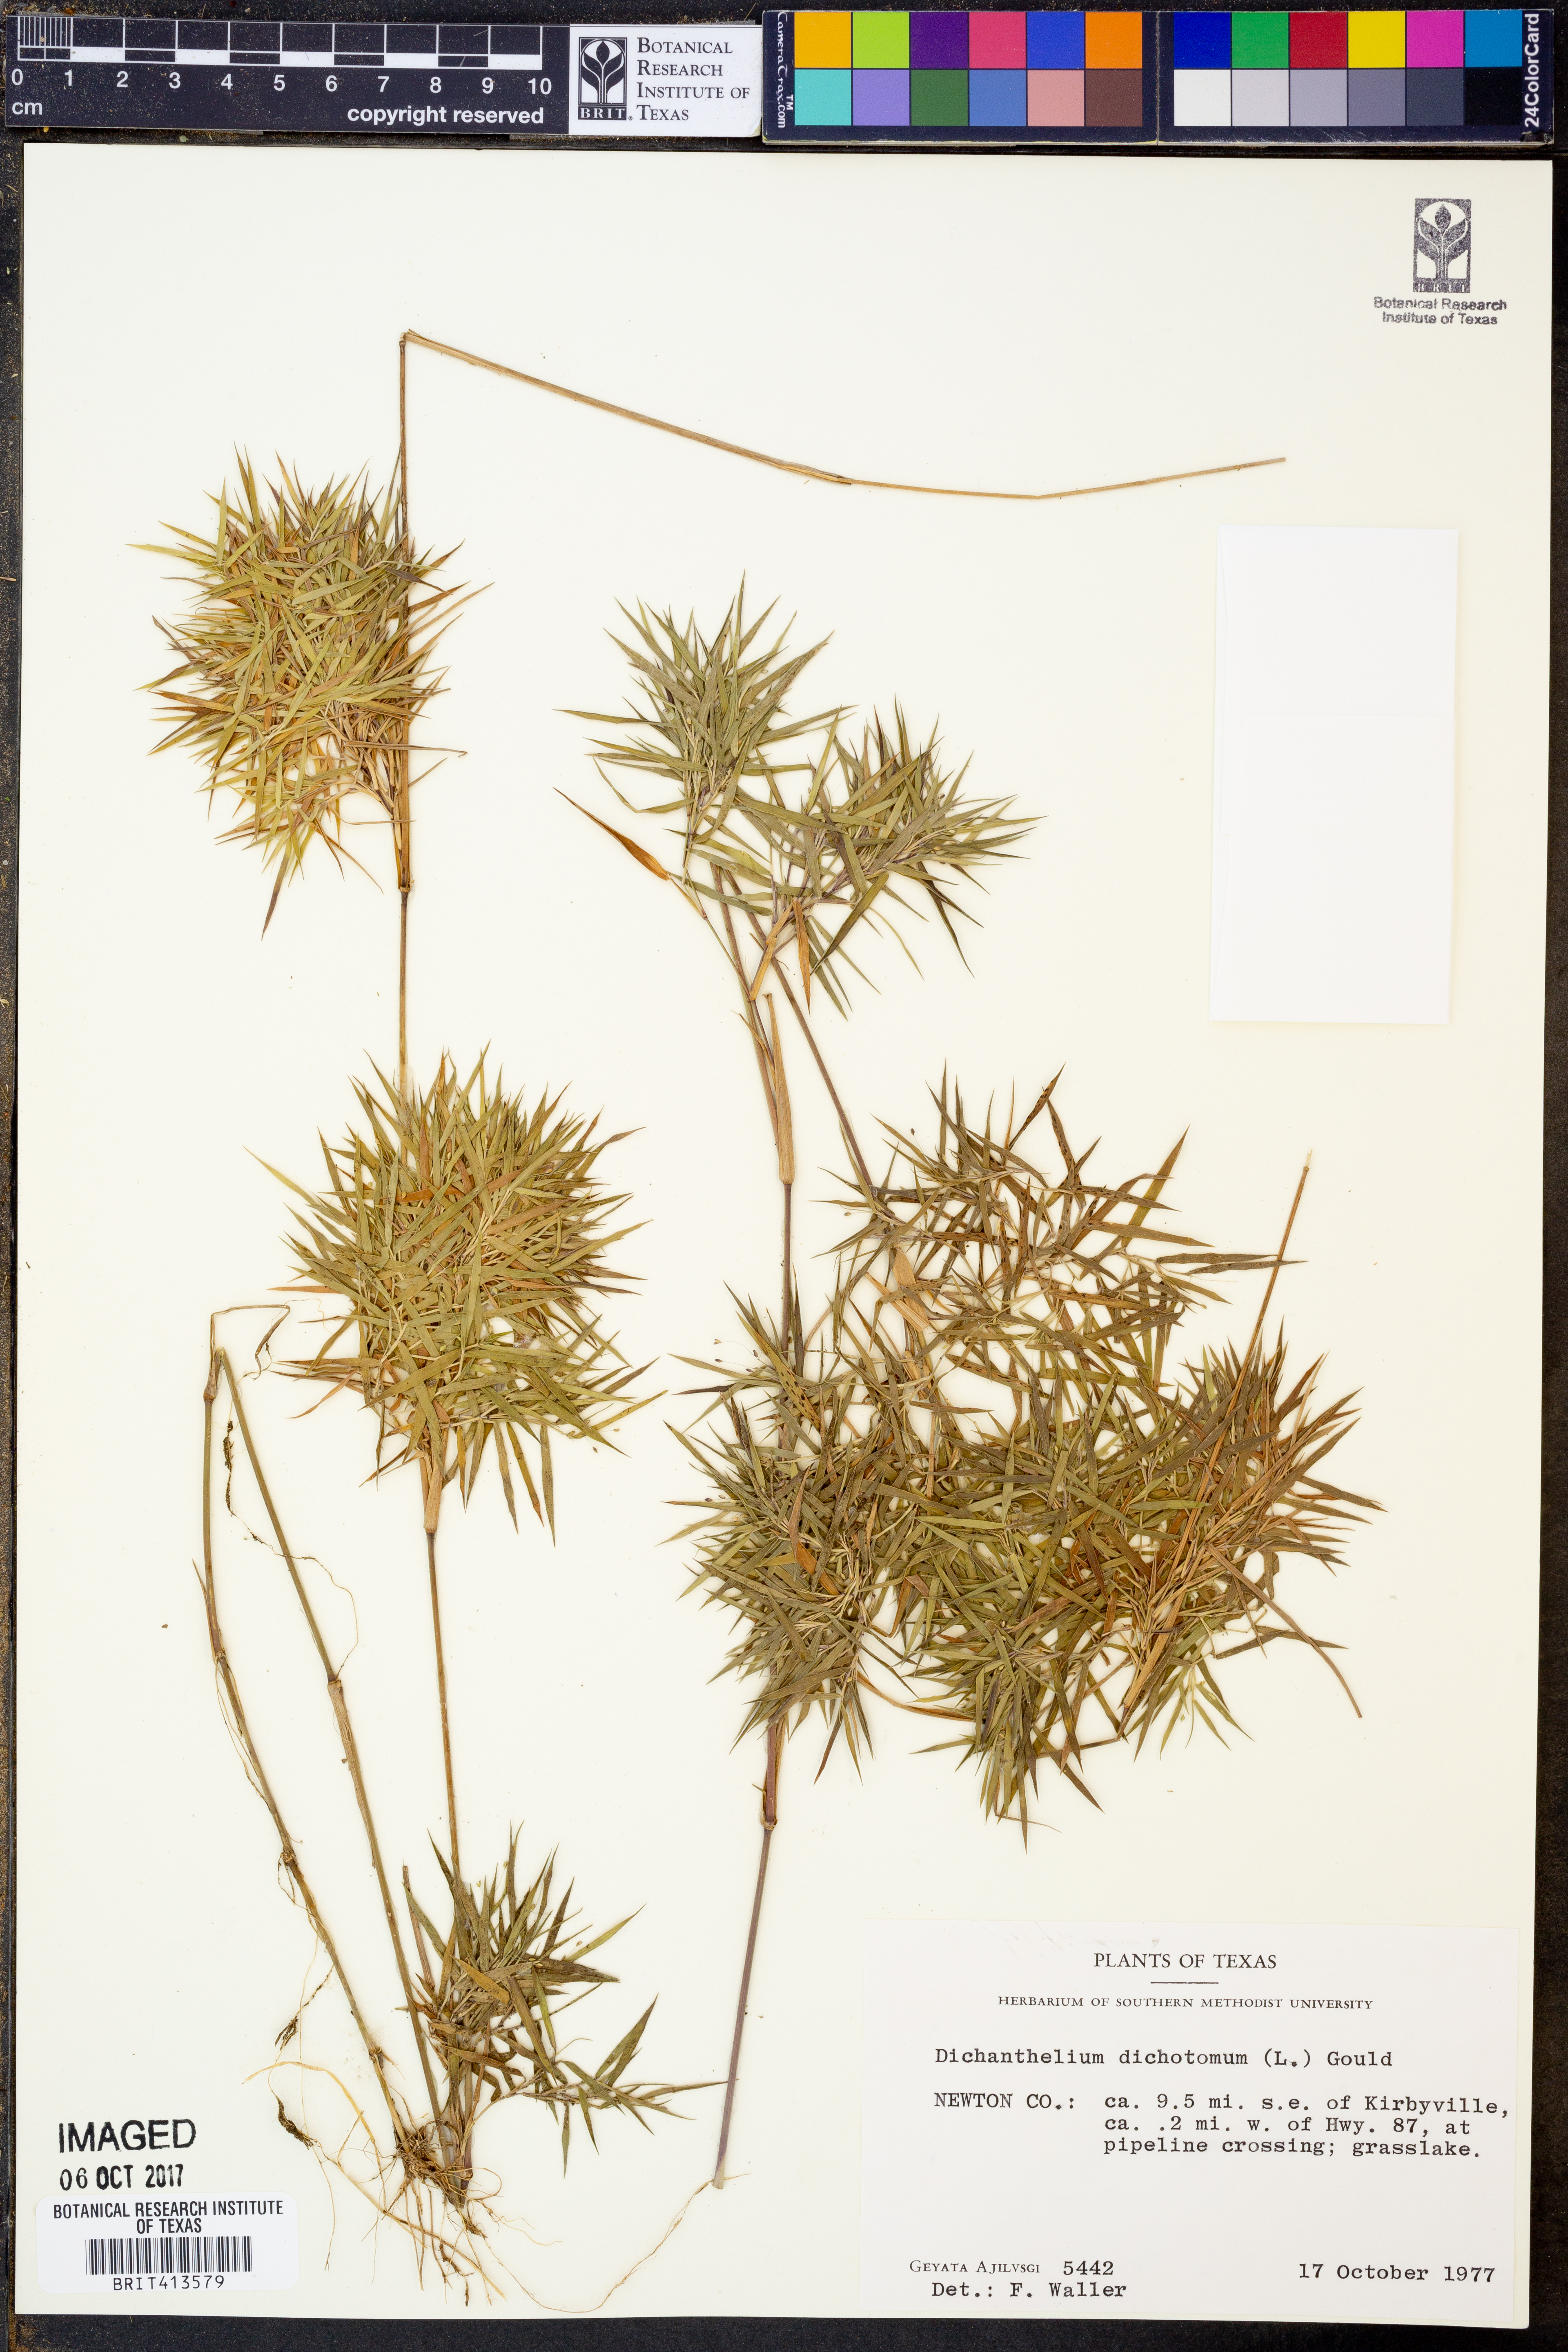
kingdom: Plantae
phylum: Tracheophyta
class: Liliopsida
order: Poales
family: Poaceae
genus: Dichanthelium
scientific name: Dichanthelium dichotomum
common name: Cypress panicgrass
